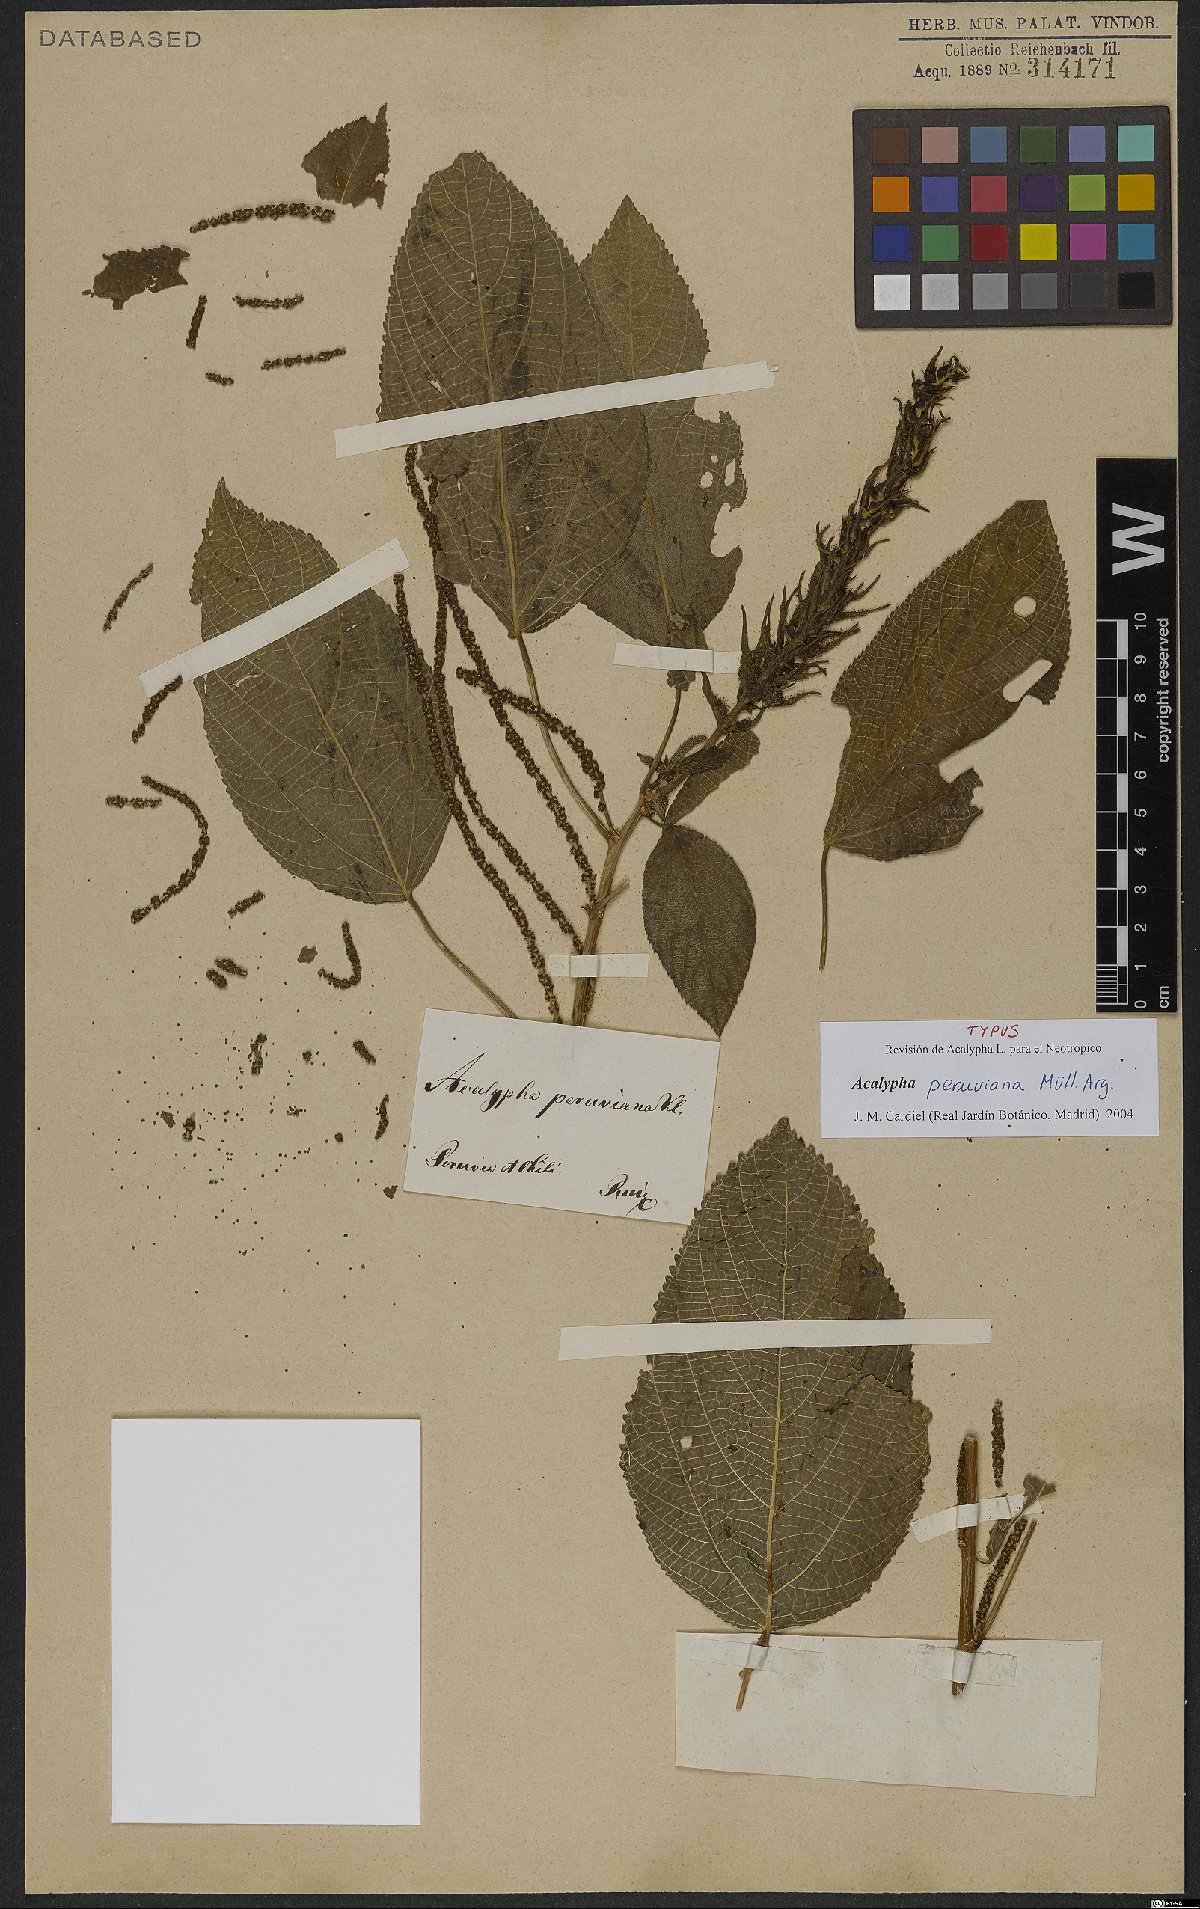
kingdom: Plantae
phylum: Tracheophyta
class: Magnoliopsida
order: Malpighiales
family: Euphorbiaceae
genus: Acalypha
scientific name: Acalypha peruviana
